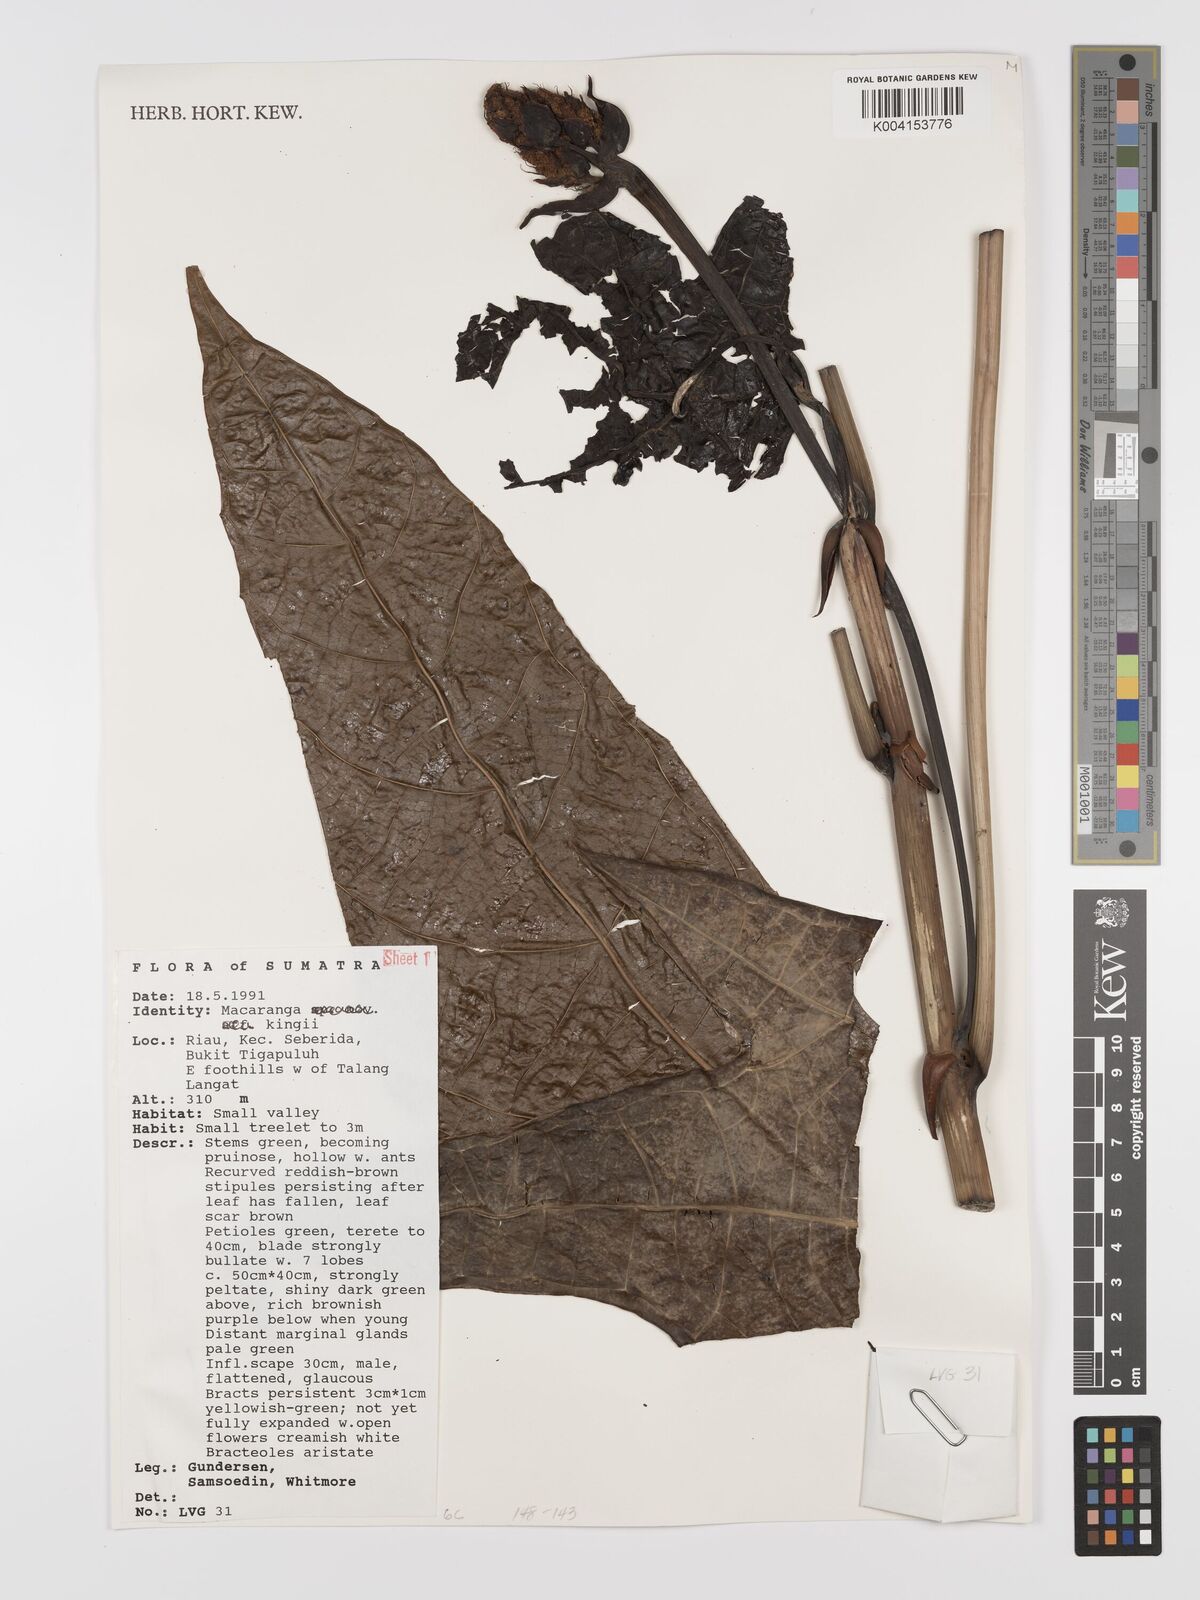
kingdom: Plantae
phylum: Tracheophyta
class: Magnoliopsida
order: Malpighiales
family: Euphorbiaceae
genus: Macaranga
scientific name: Macaranga kingii
